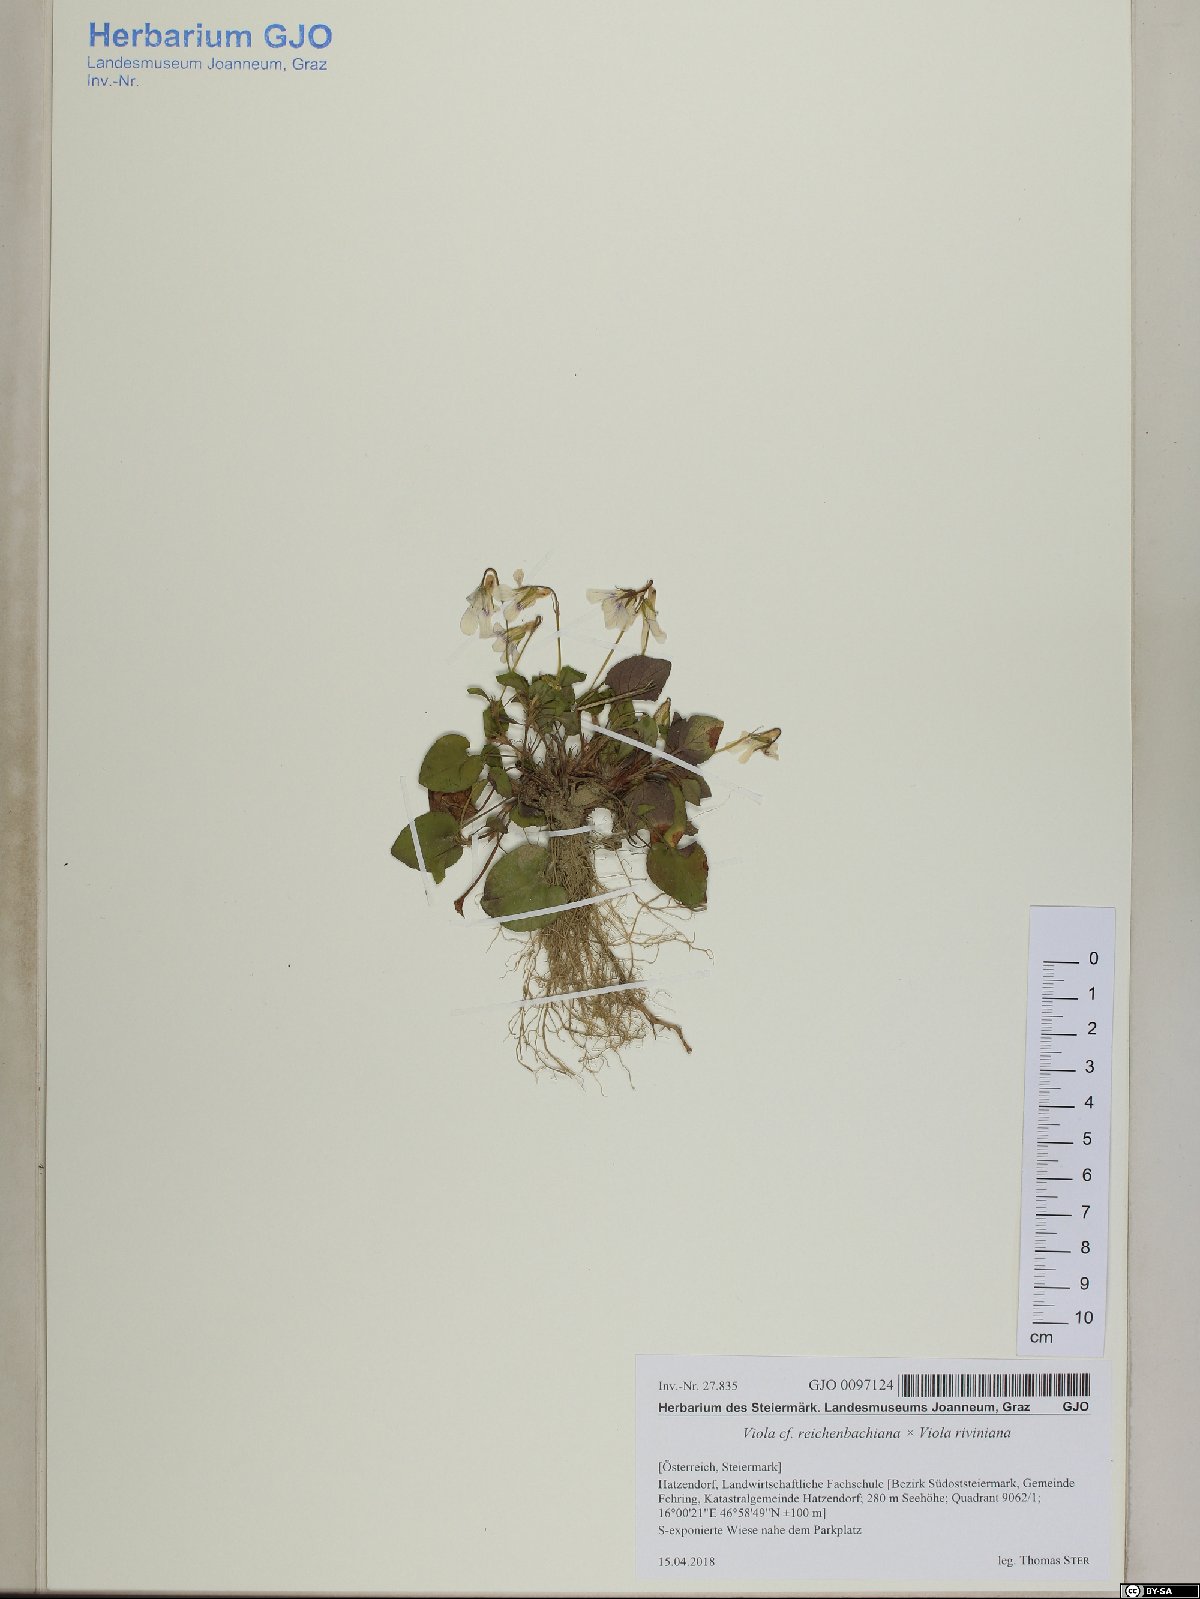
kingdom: Plantae
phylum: Tracheophyta
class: Magnoliopsida
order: Malpighiales
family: Violaceae
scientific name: Violaceae
